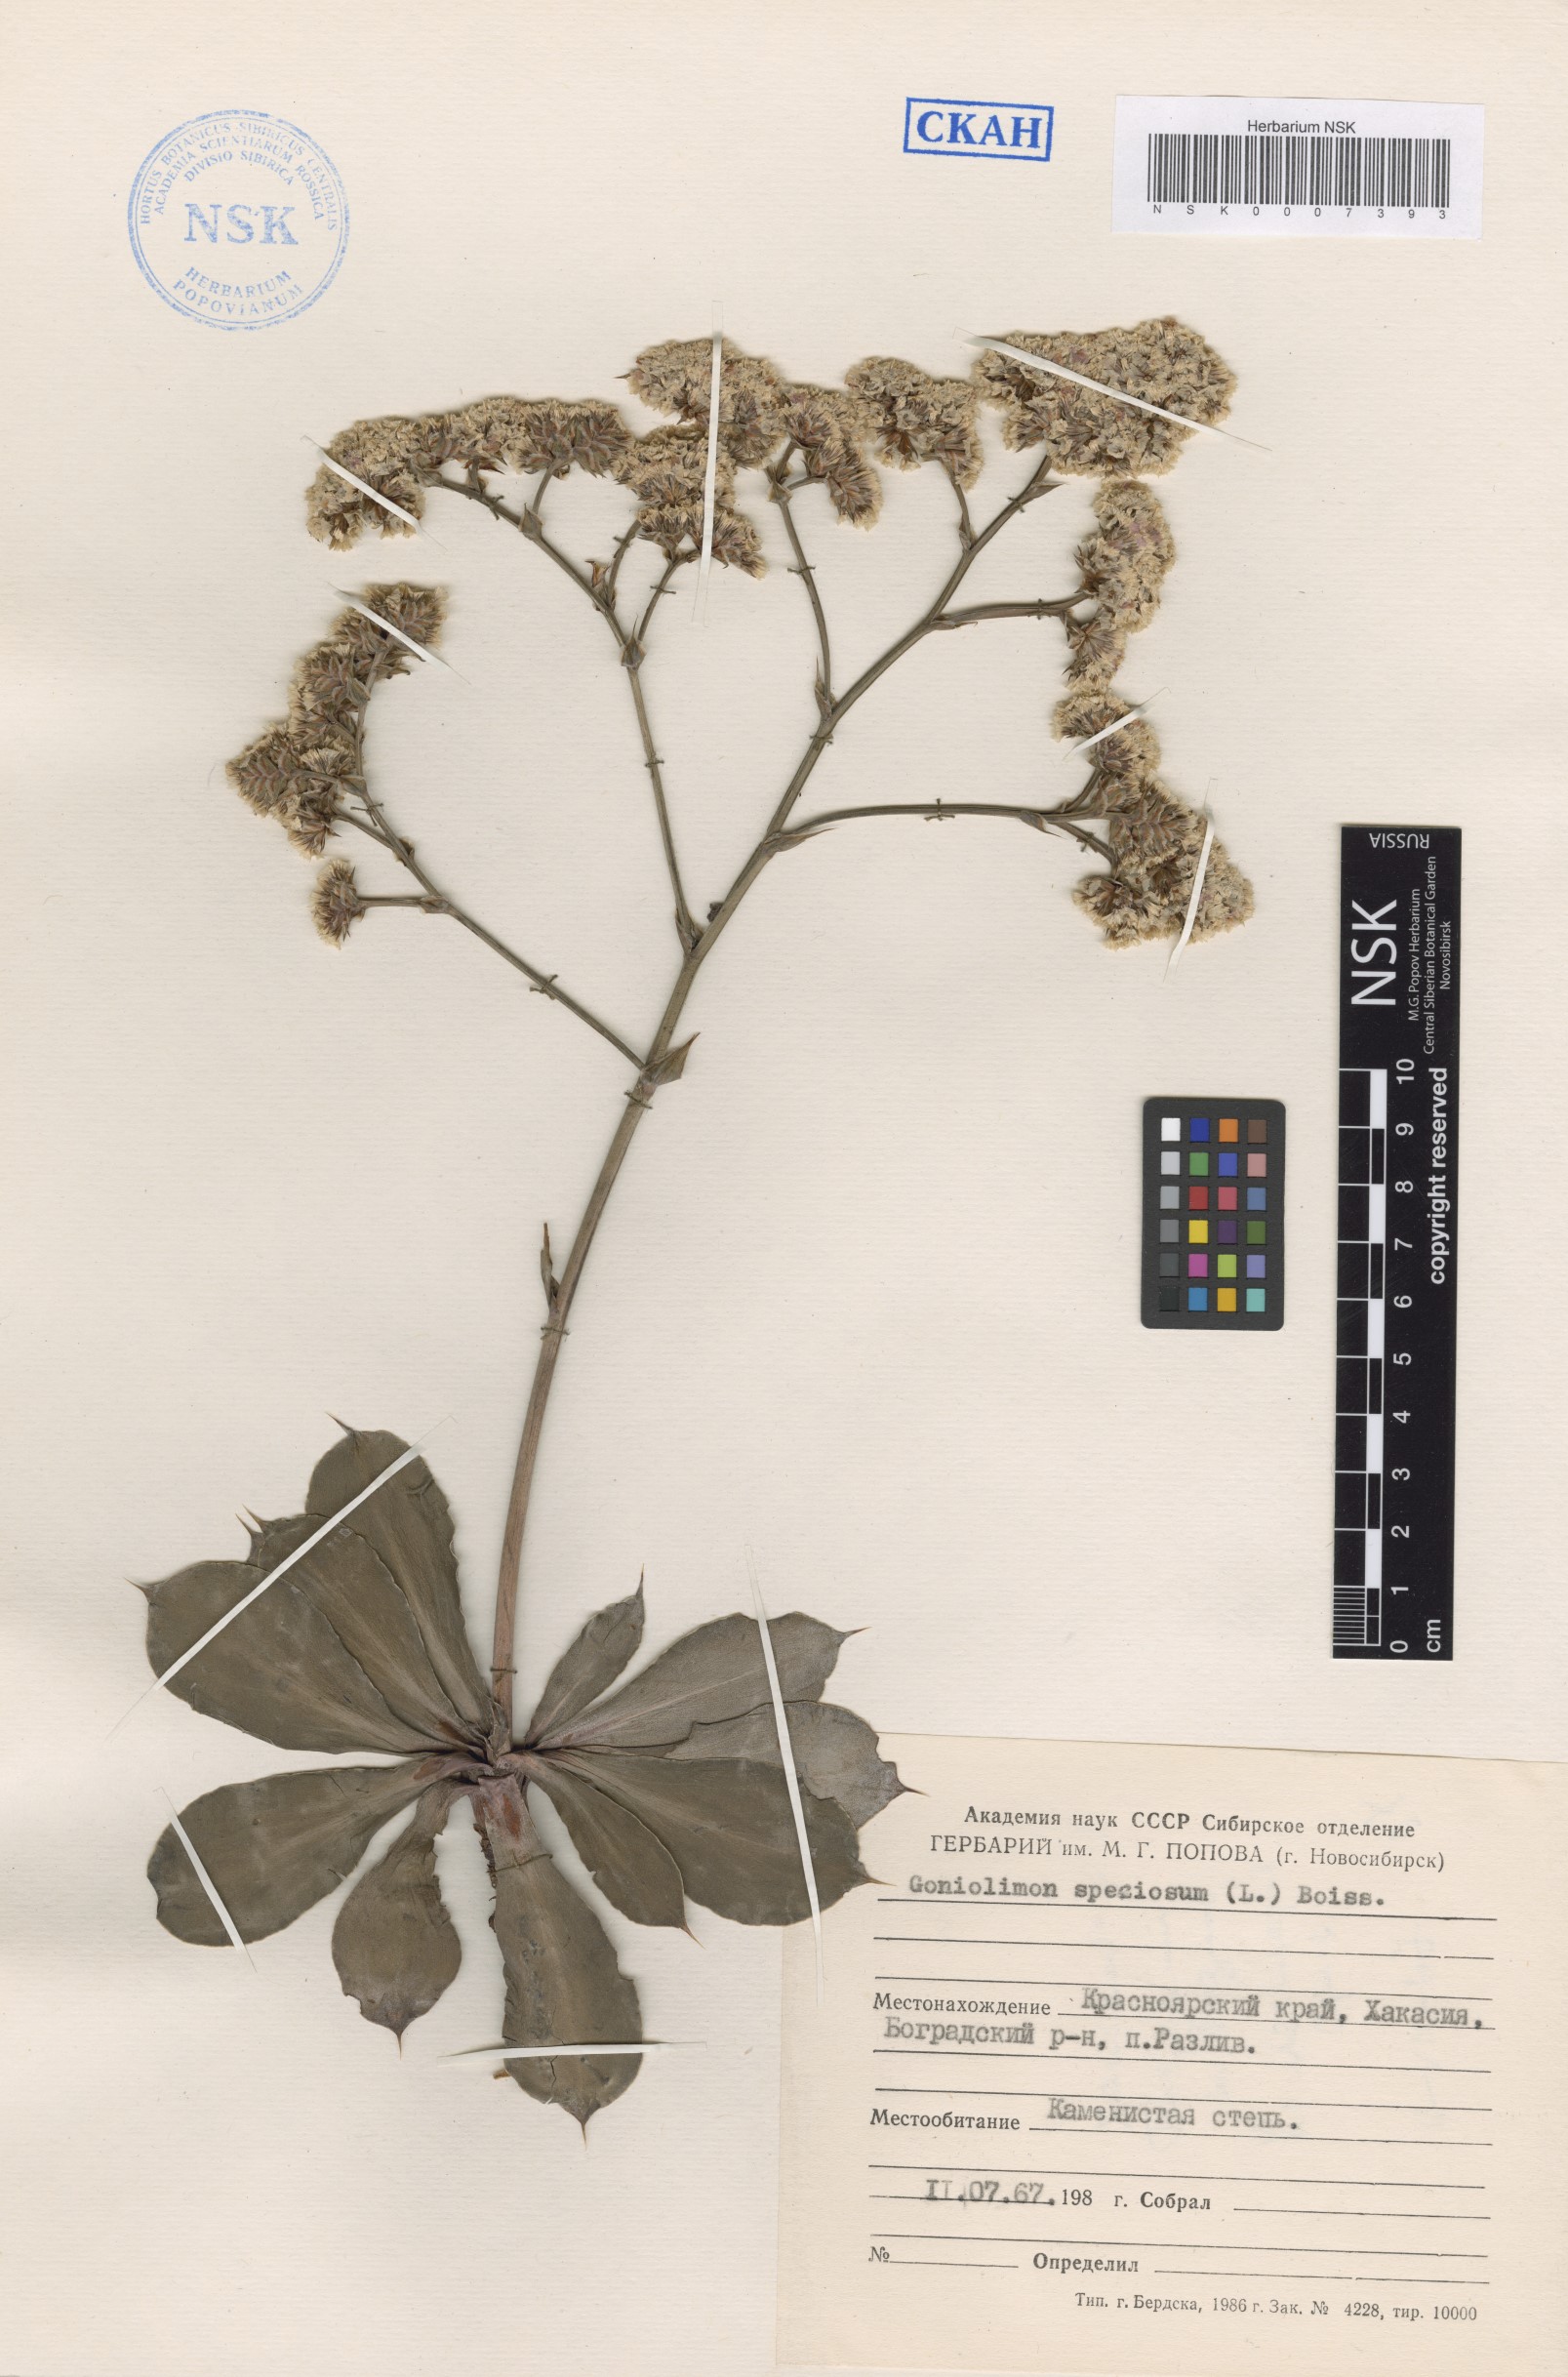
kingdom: Plantae
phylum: Tracheophyta
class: Magnoliopsida
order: Caryophyllales
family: Plumbaginaceae
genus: Goniolimon
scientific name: Goniolimon speciosum
